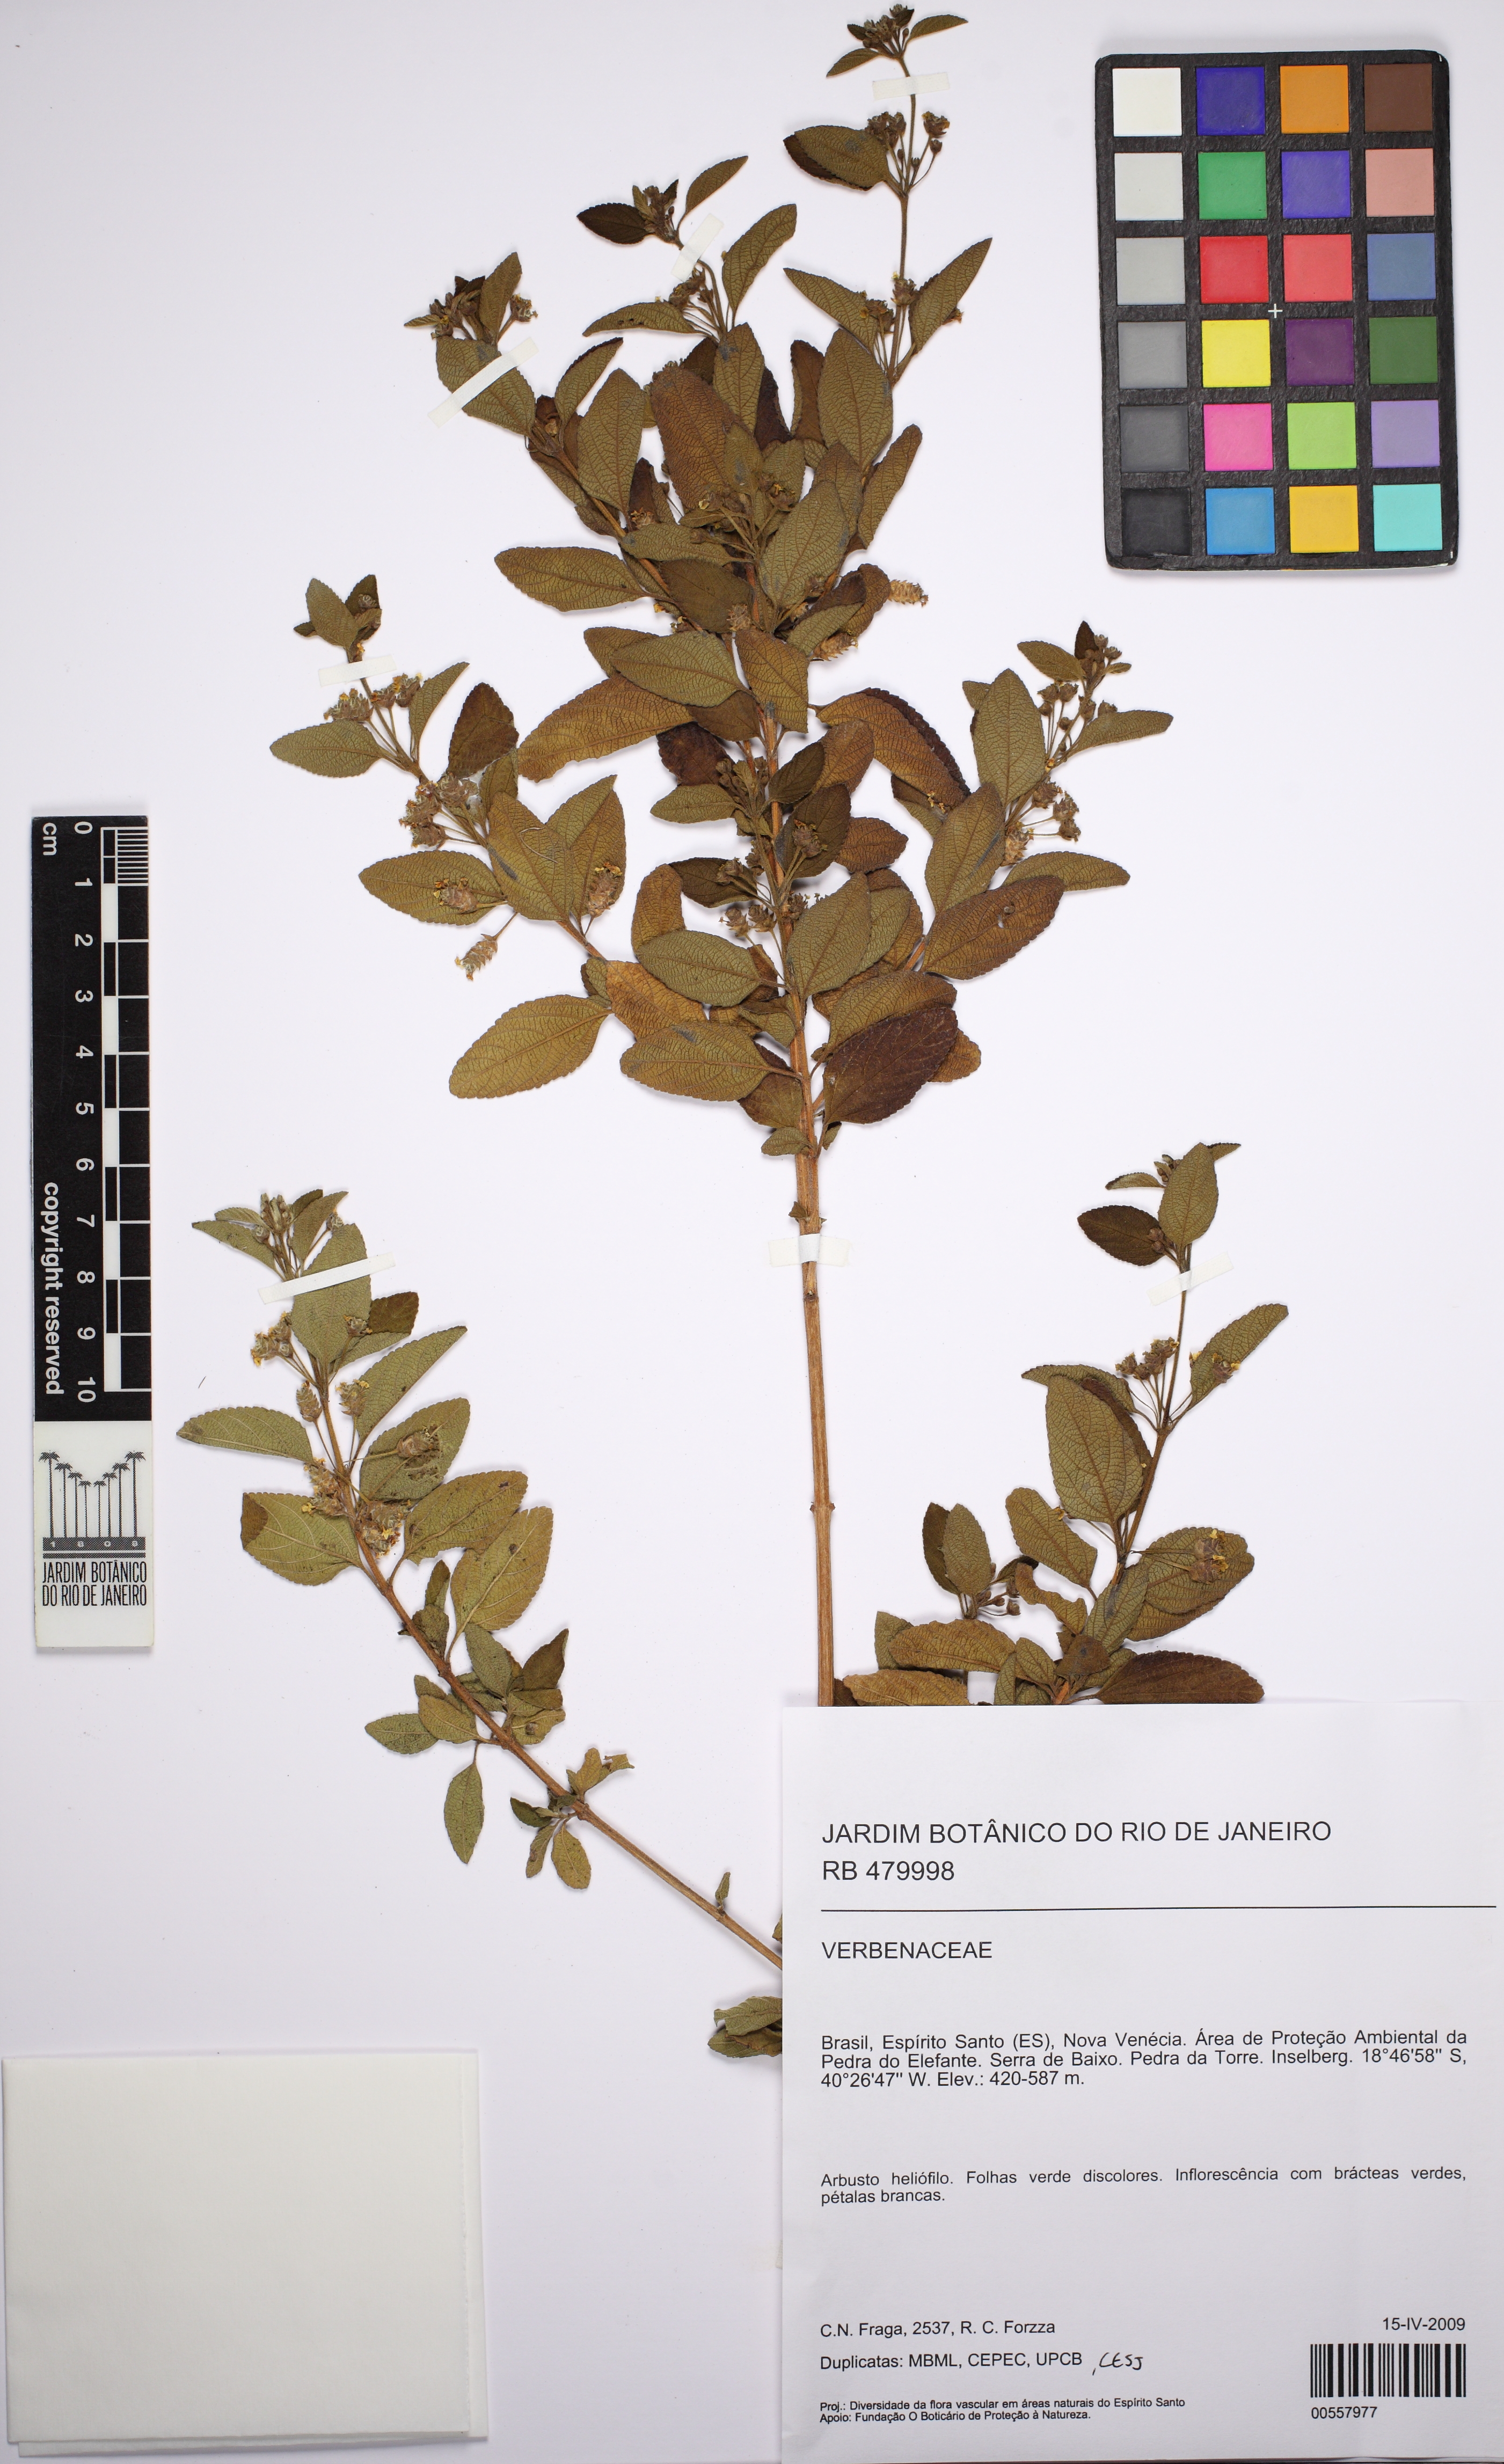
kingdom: Plantae
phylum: Tracheophyta
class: Magnoliopsida
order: Lamiales
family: Verbenaceae
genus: Lippia
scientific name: Lippia origanoides
